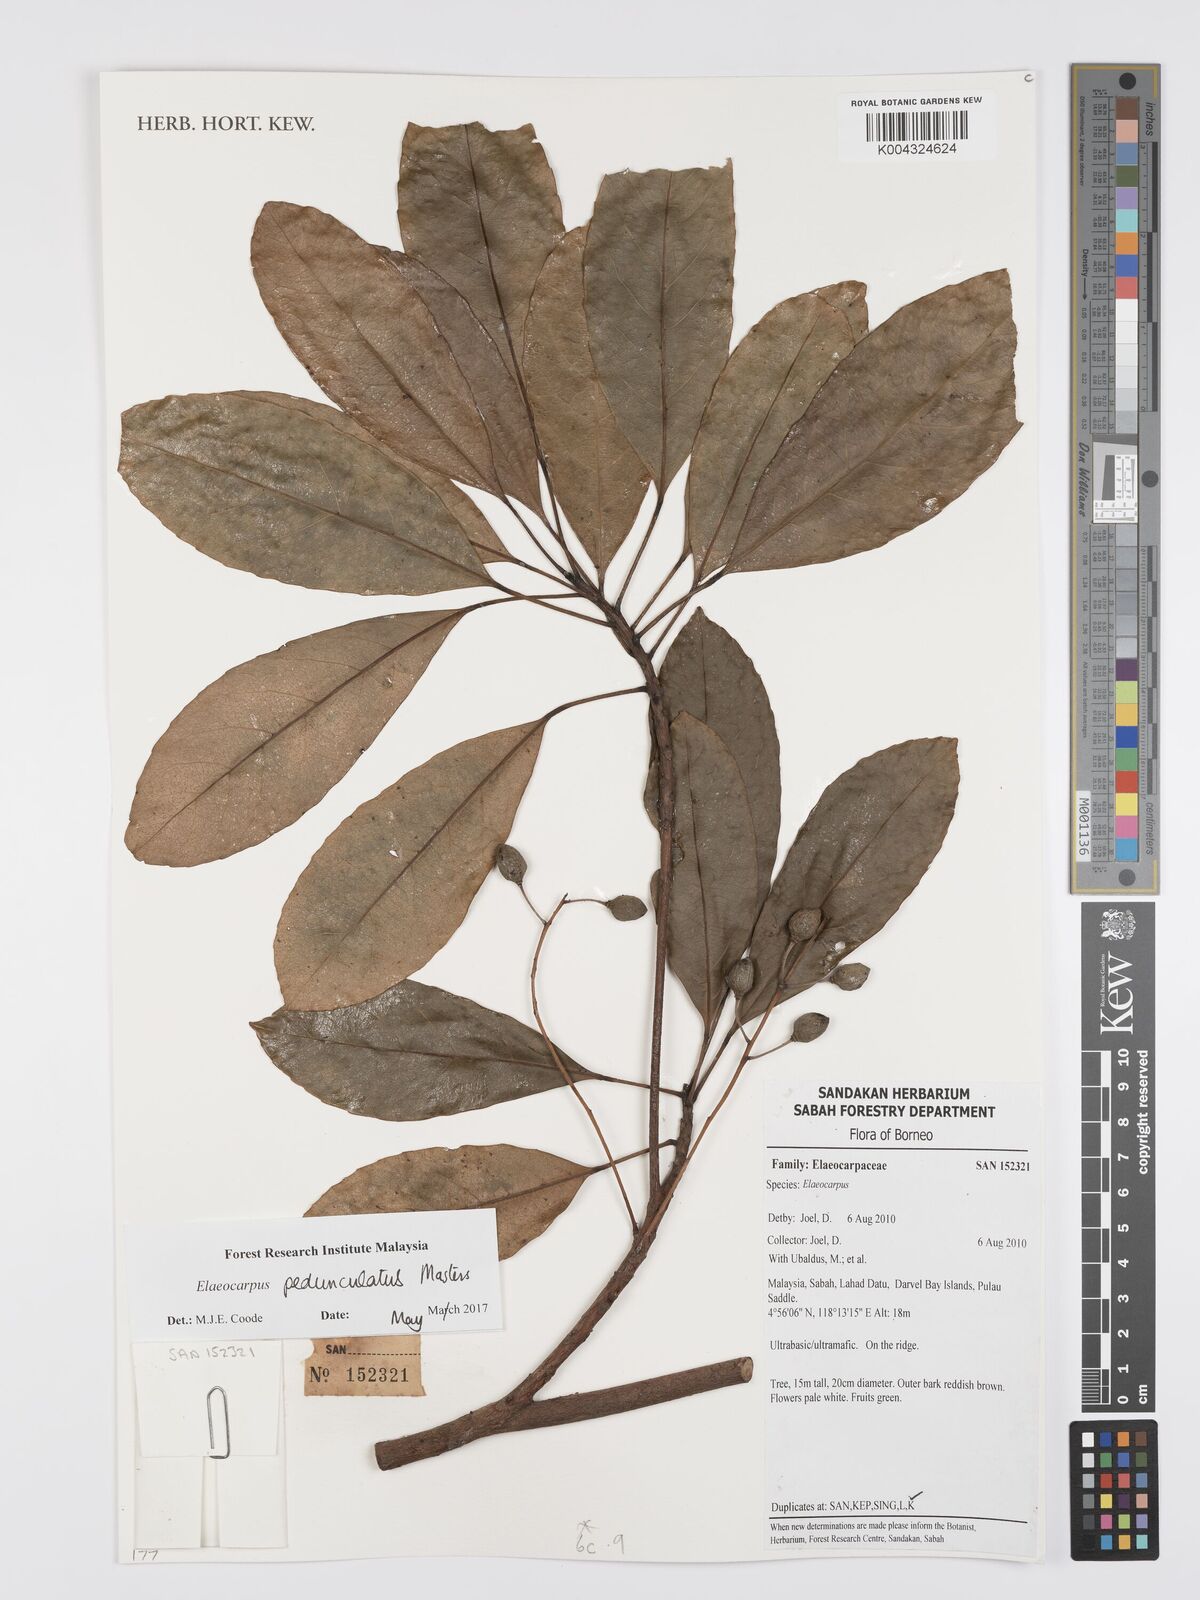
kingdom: Plantae
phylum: Tracheophyta
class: Magnoliopsida
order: Oxalidales
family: Elaeocarpaceae
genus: Elaeocarpus
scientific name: Elaeocarpus pedunculatus
